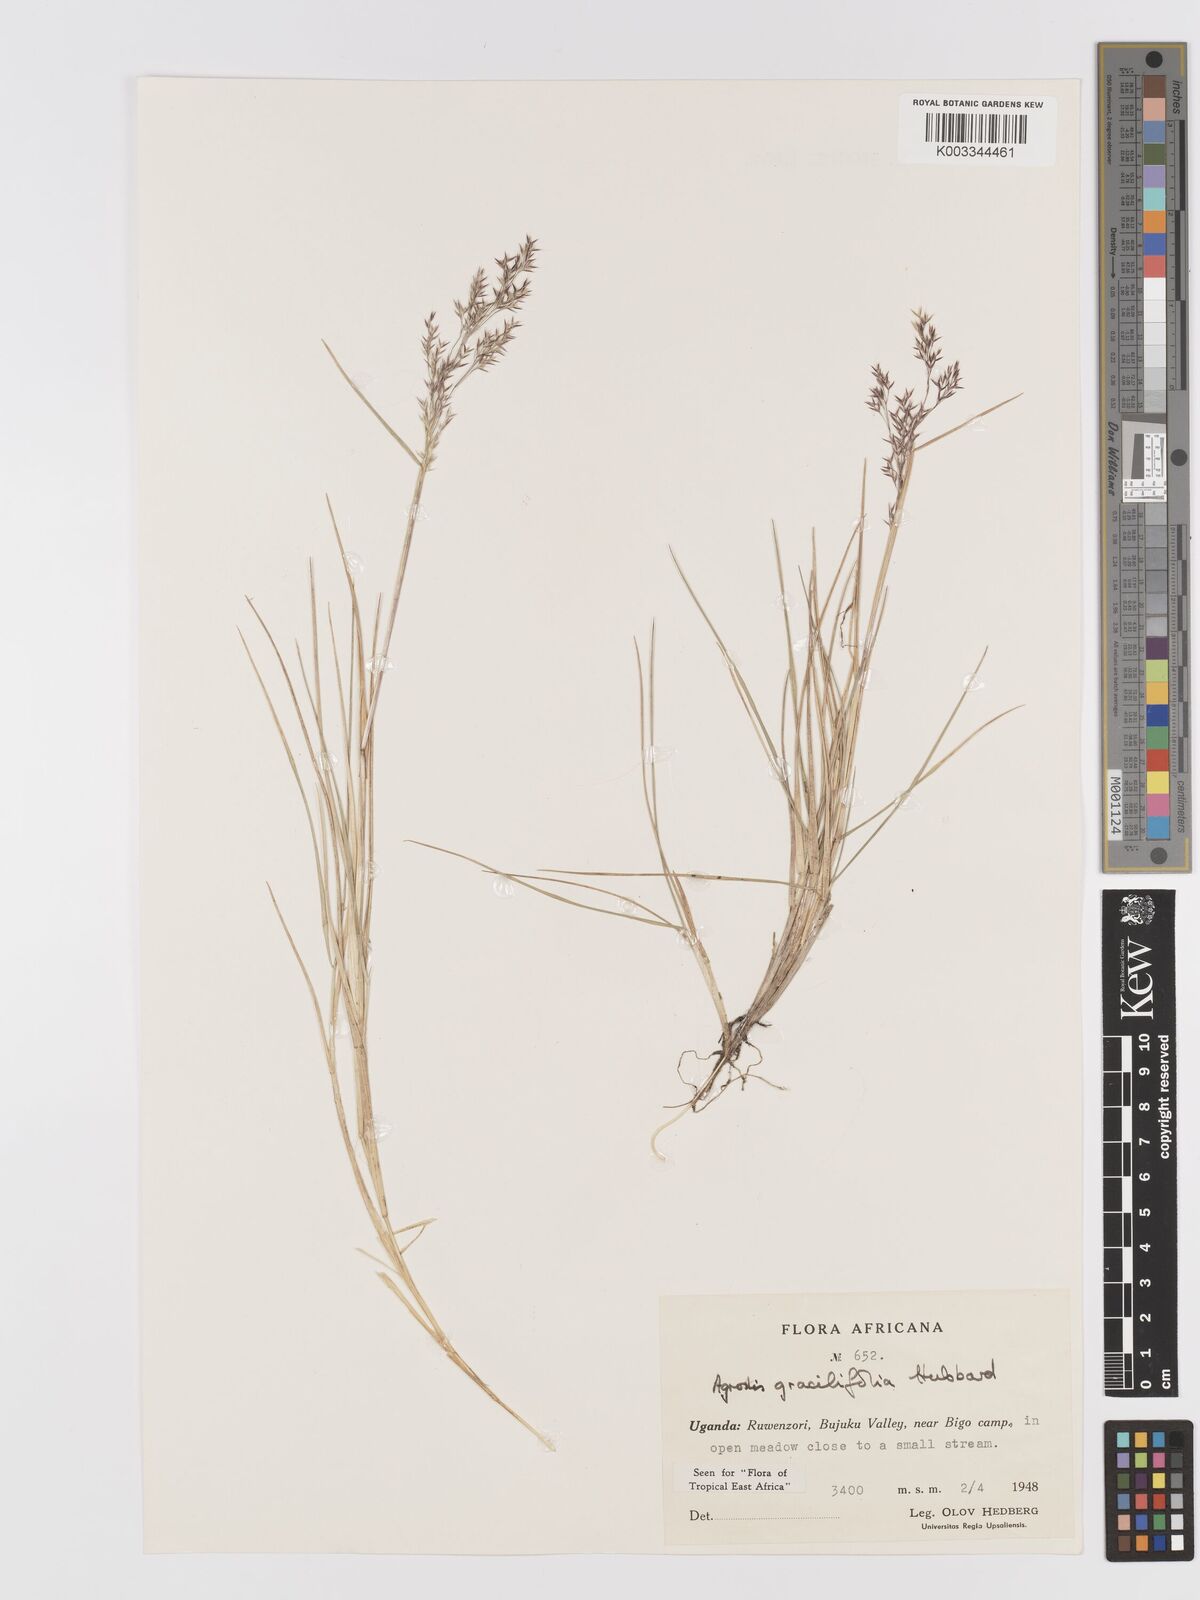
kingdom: Plantae
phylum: Tracheophyta
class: Liliopsida
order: Poales
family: Poaceae
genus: Agrostis
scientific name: Agrostis gracilifolia
